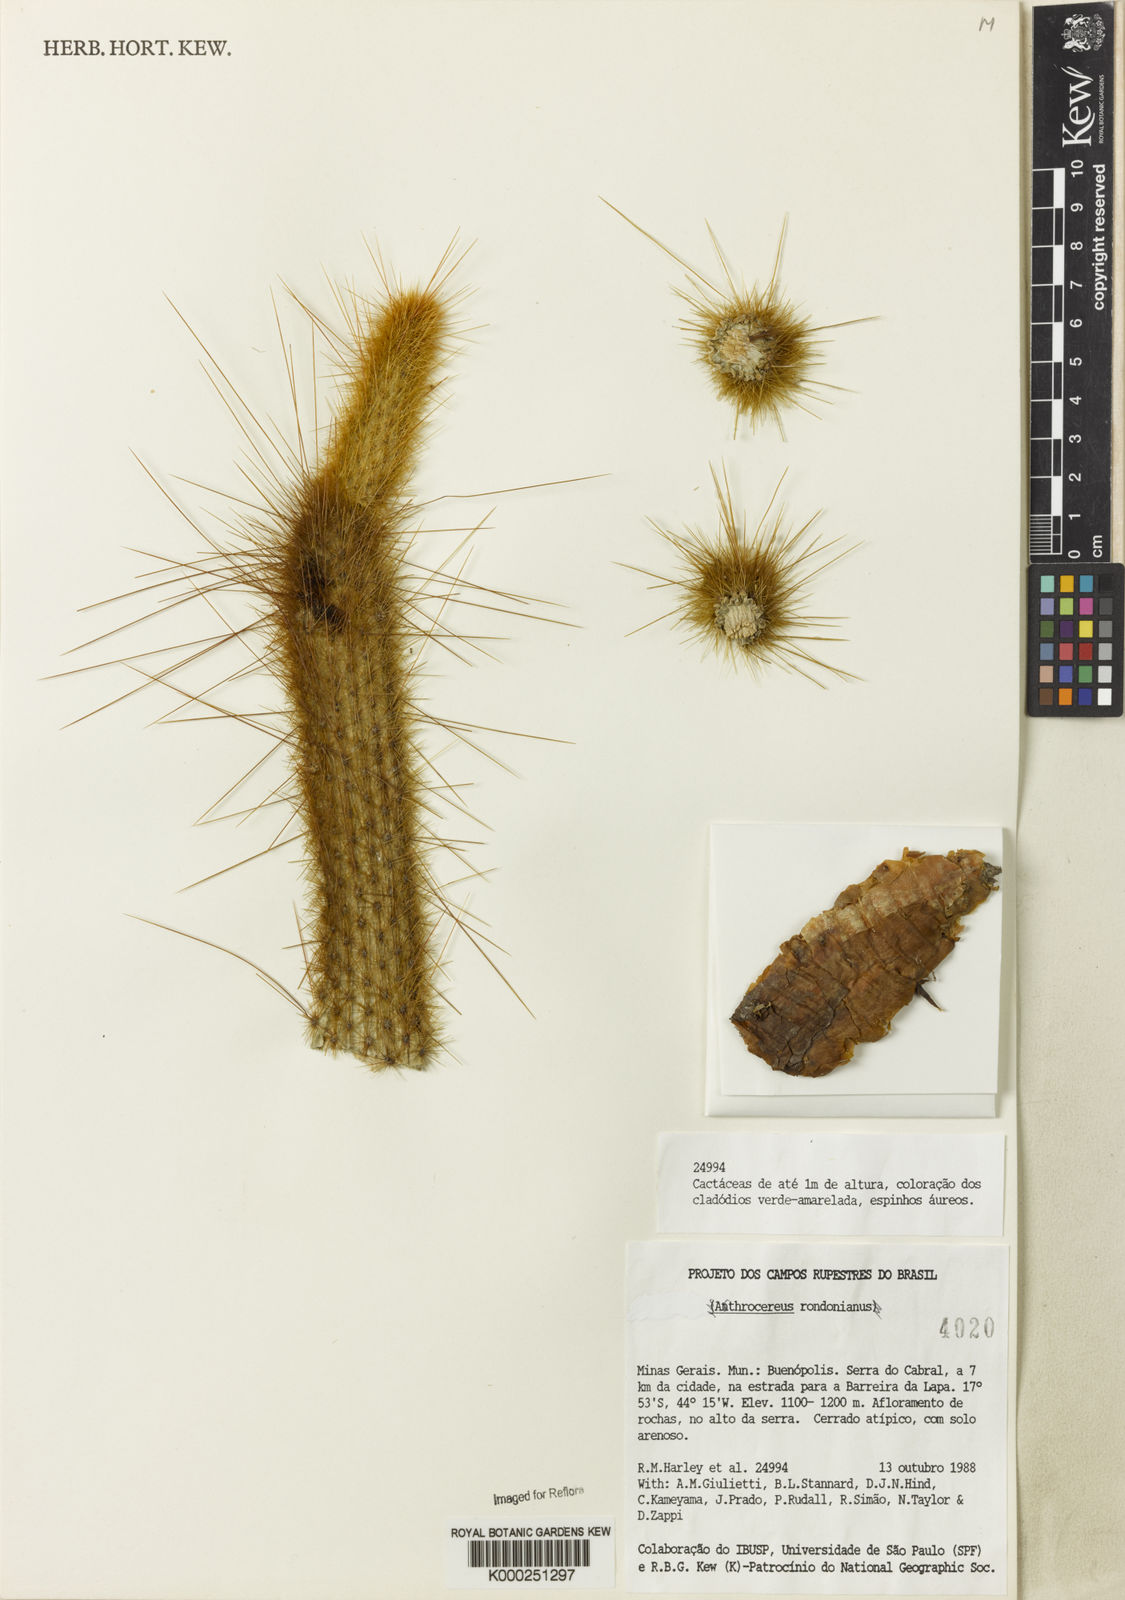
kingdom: Plantae
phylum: Tracheophyta
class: Magnoliopsida
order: Caryophyllales
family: Cactaceae
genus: Arthrocereus
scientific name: Arthrocereus rondonianus
